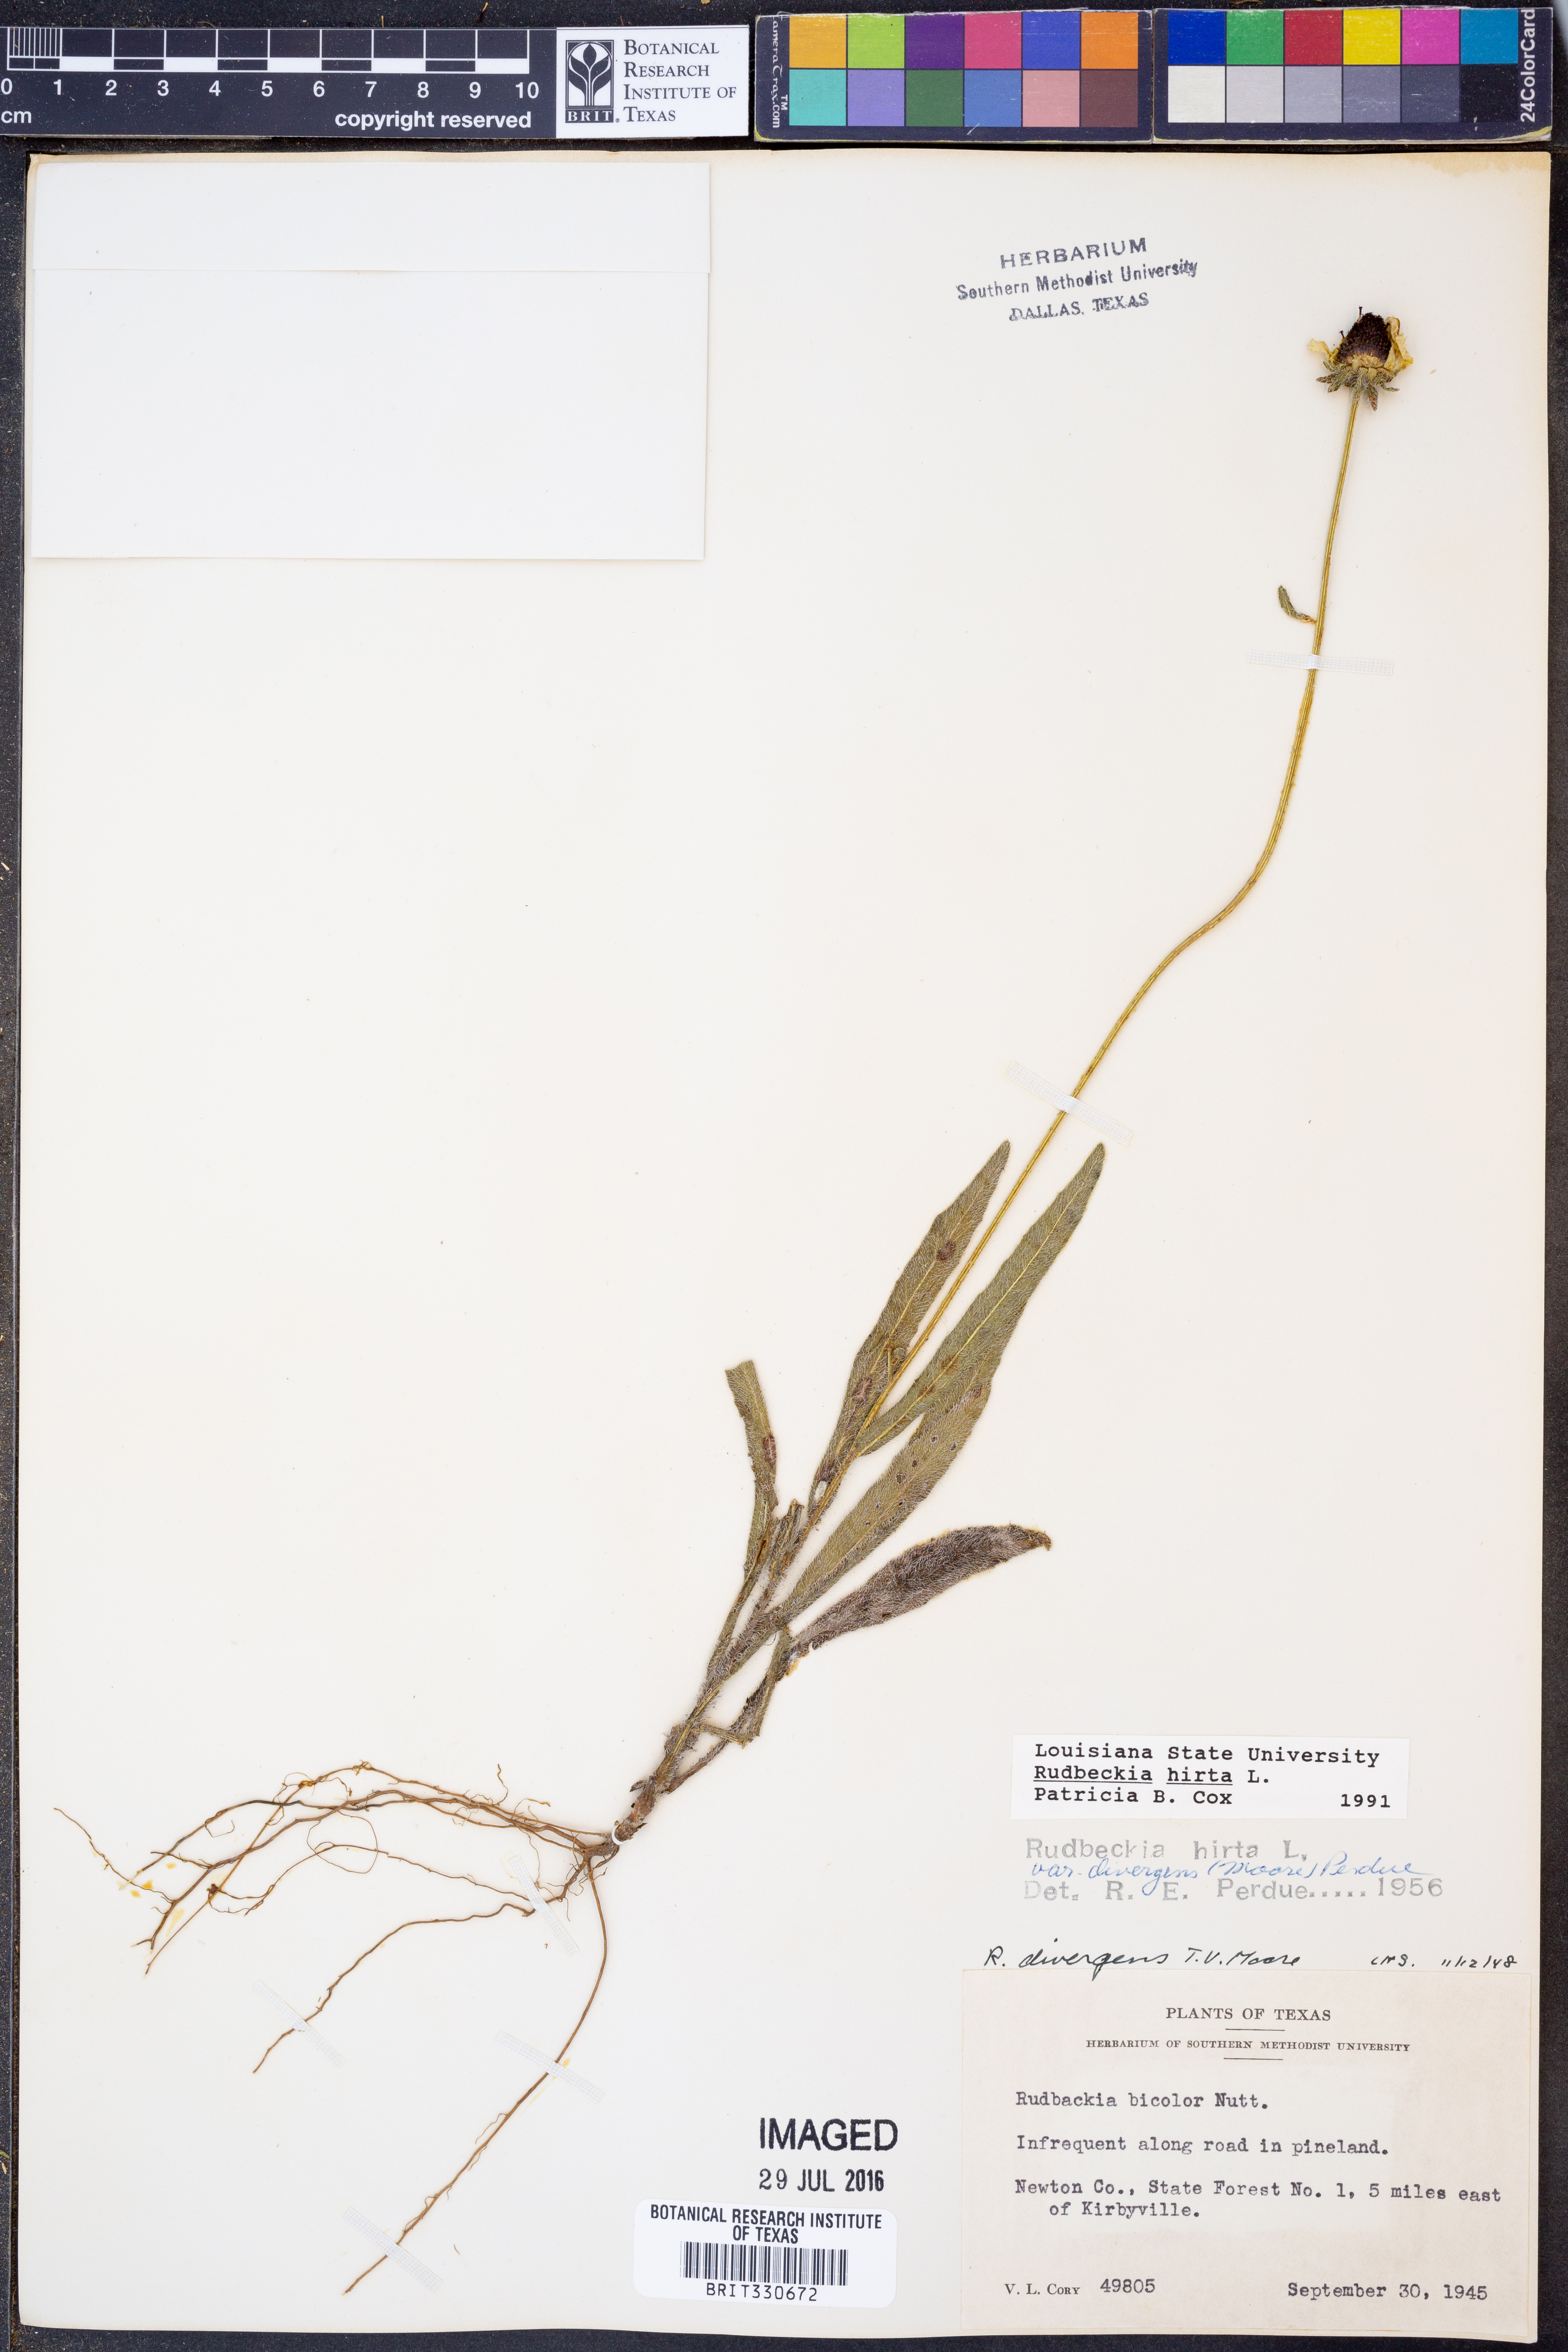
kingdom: Plantae
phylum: Tracheophyta
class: Magnoliopsida
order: Asterales
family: Asteraceae
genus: Rudbeckia
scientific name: Rudbeckia hirta
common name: Black-eyed-susan
